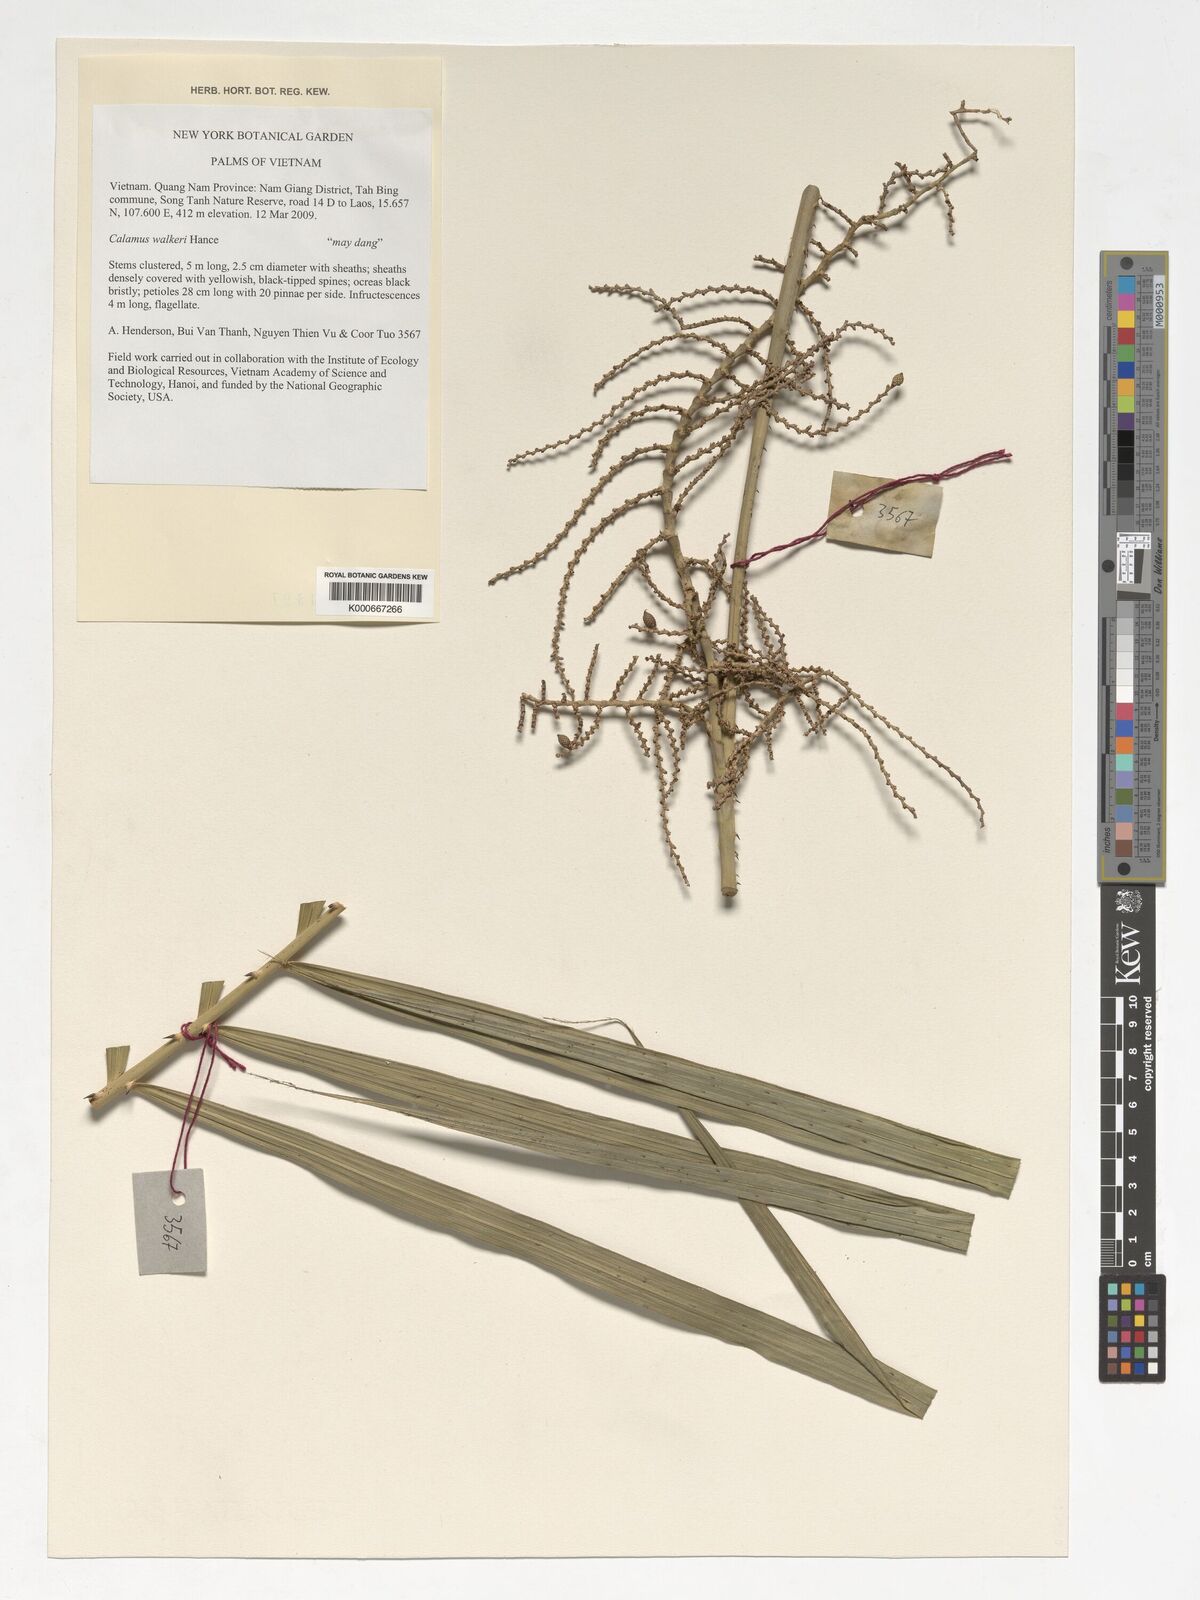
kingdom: Plantae
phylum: Tracheophyta
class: Liliopsida
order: Arecales
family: Arecaceae
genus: Calamus
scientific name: Calamus walkeri
